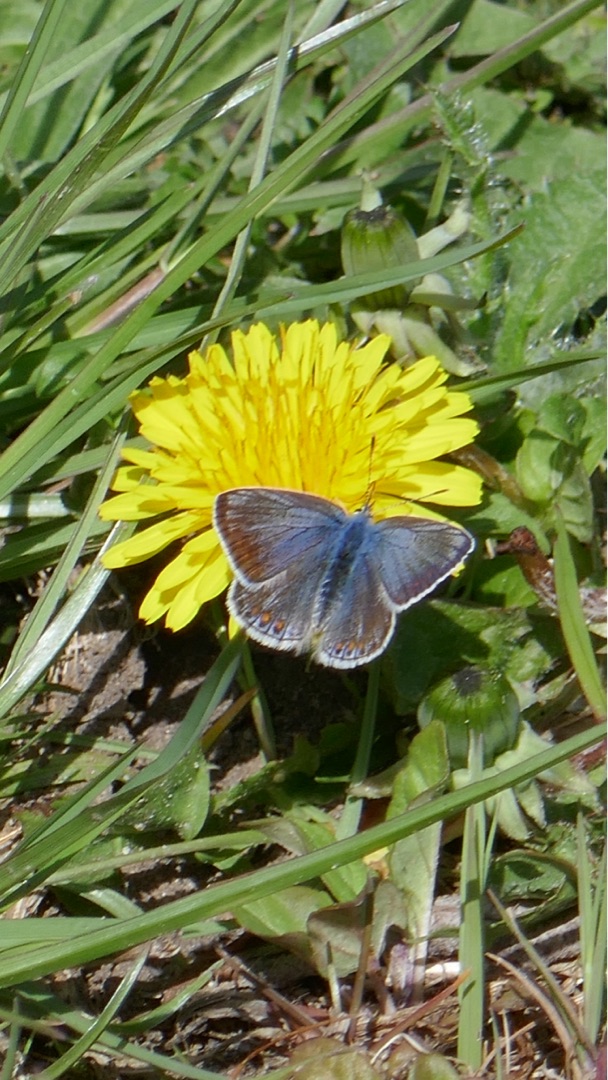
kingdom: Animalia
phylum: Arthropoda
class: Insecta
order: Lepidoptera
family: Lycaenidae
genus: Polyommatus
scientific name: Polyommatus icarus
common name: Almindelig blåfugl
